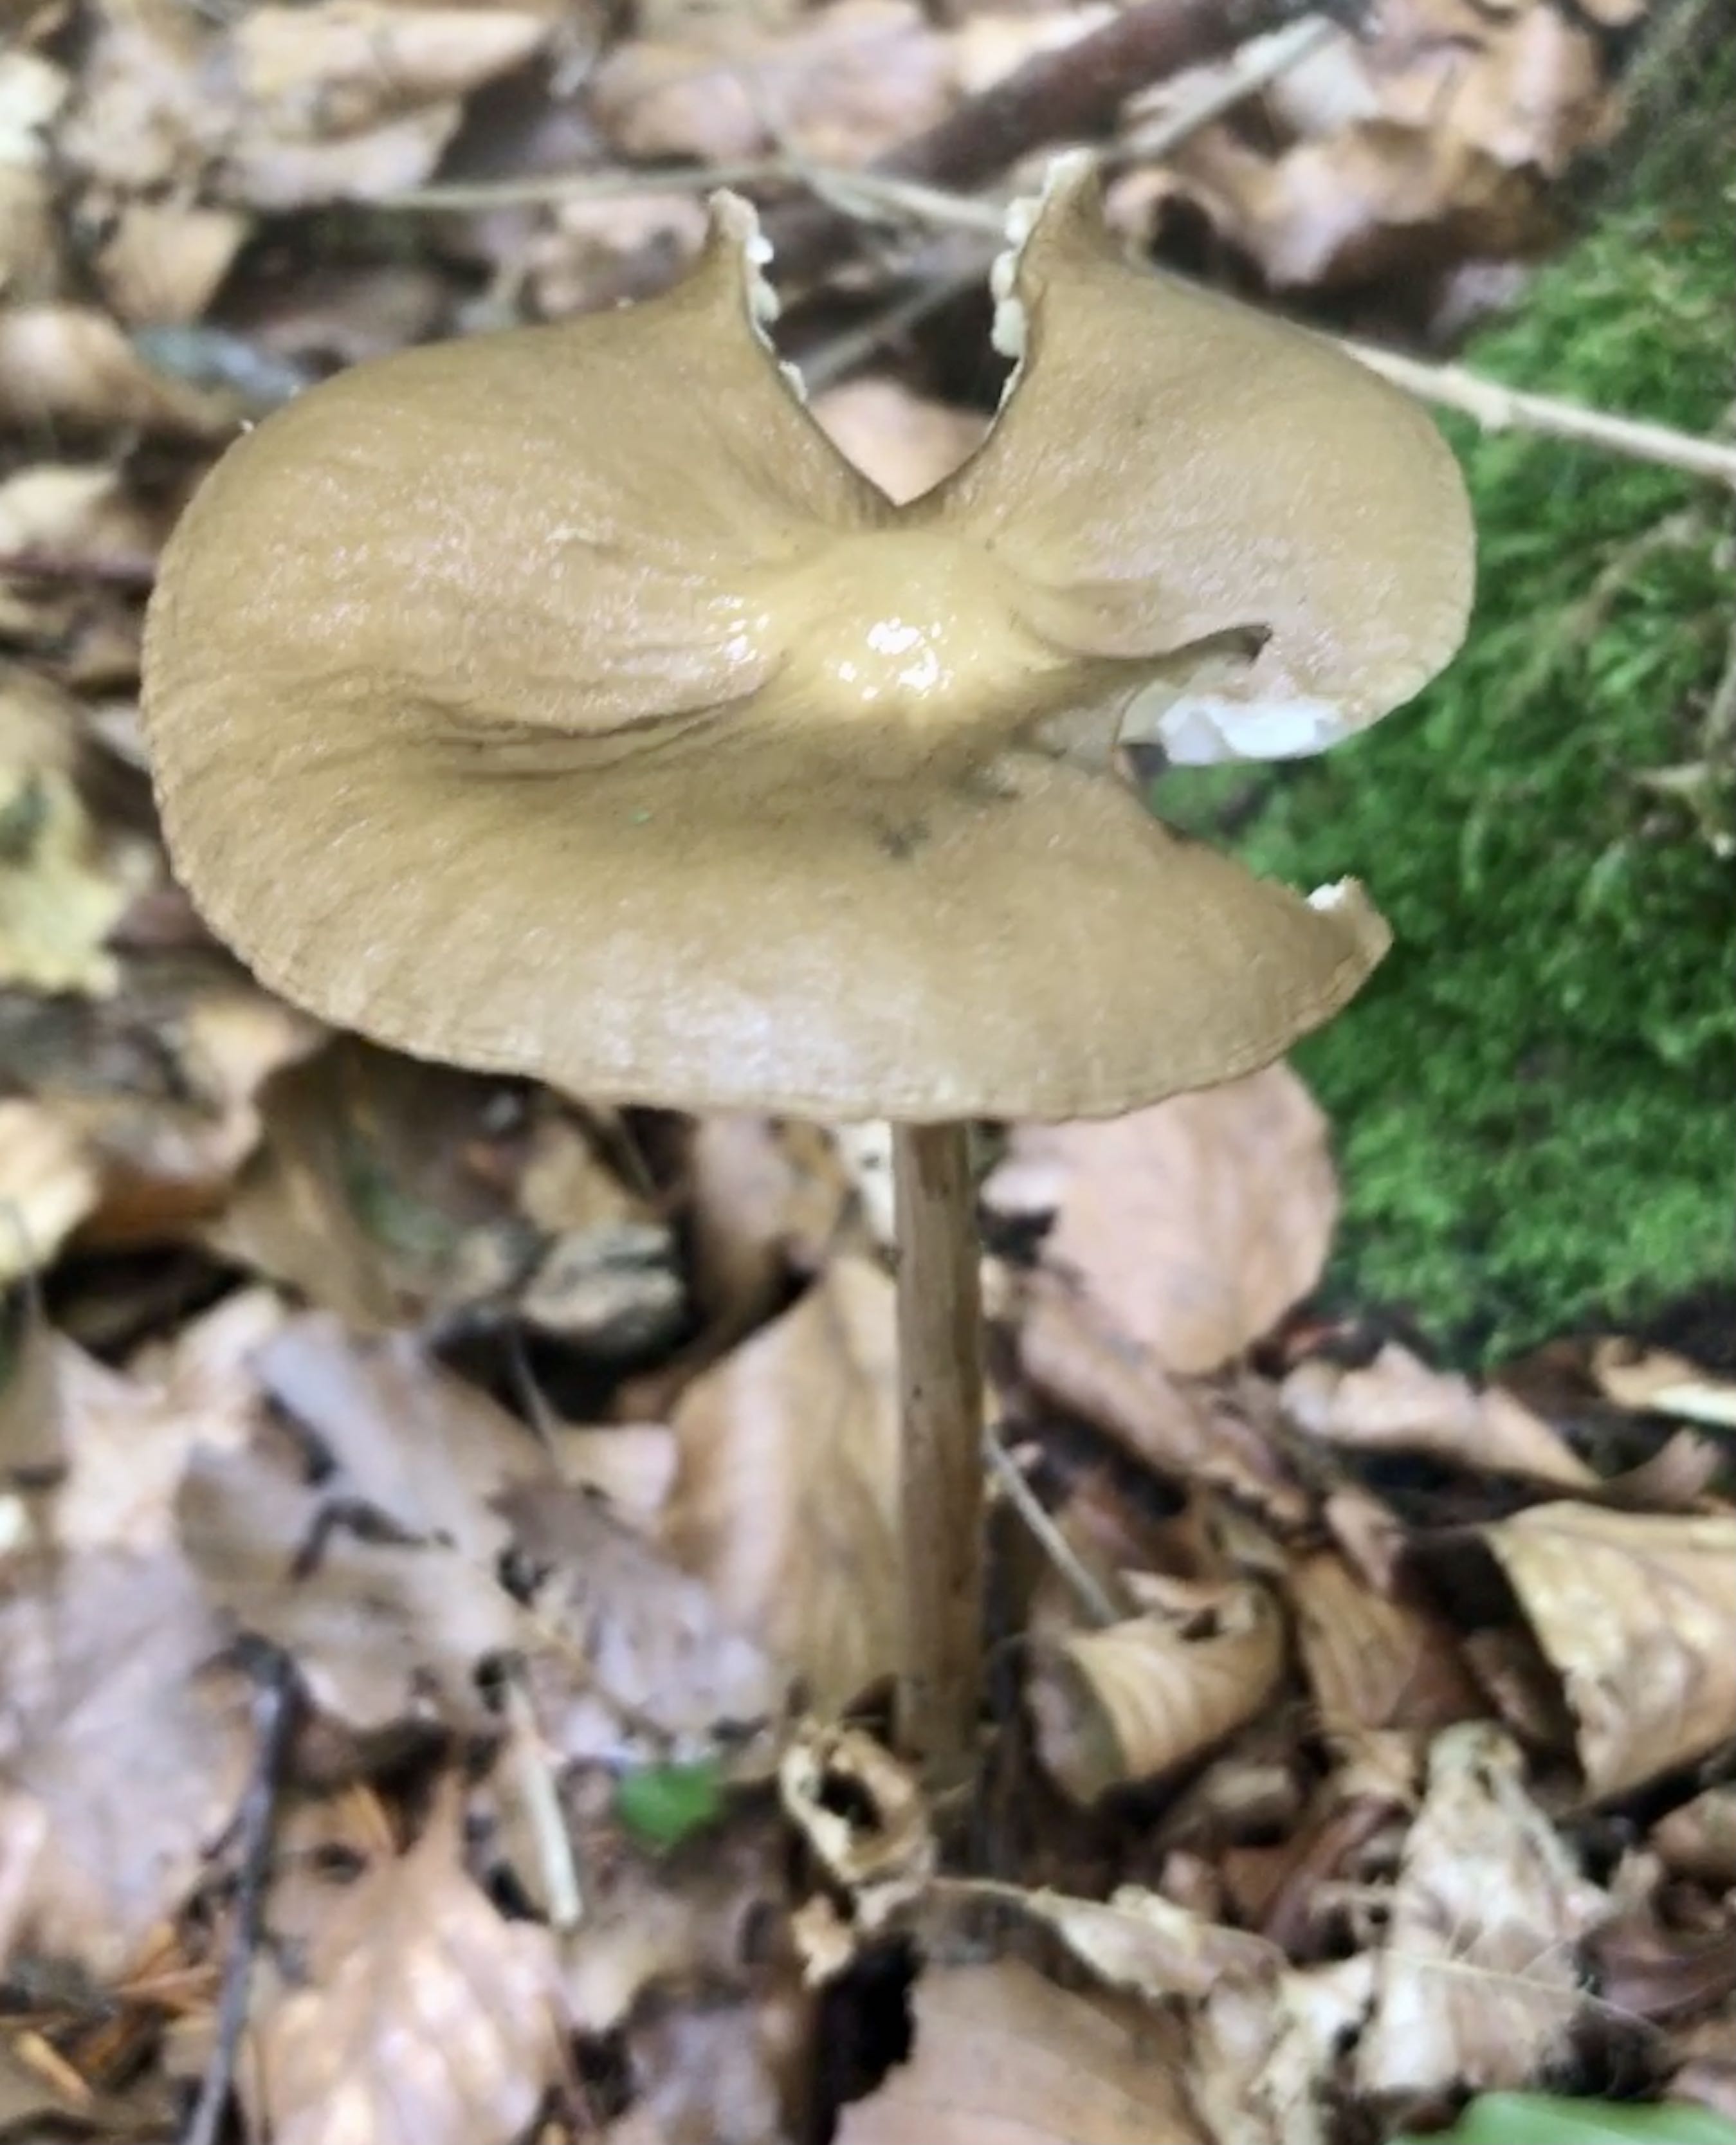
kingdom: Fungi
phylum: Basidiomycota
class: Agaricomycetes
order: Agaricales
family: Physalacriaceae
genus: Hymenopellis
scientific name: Hymenopellis radicata
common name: almindelig pælerodshat
